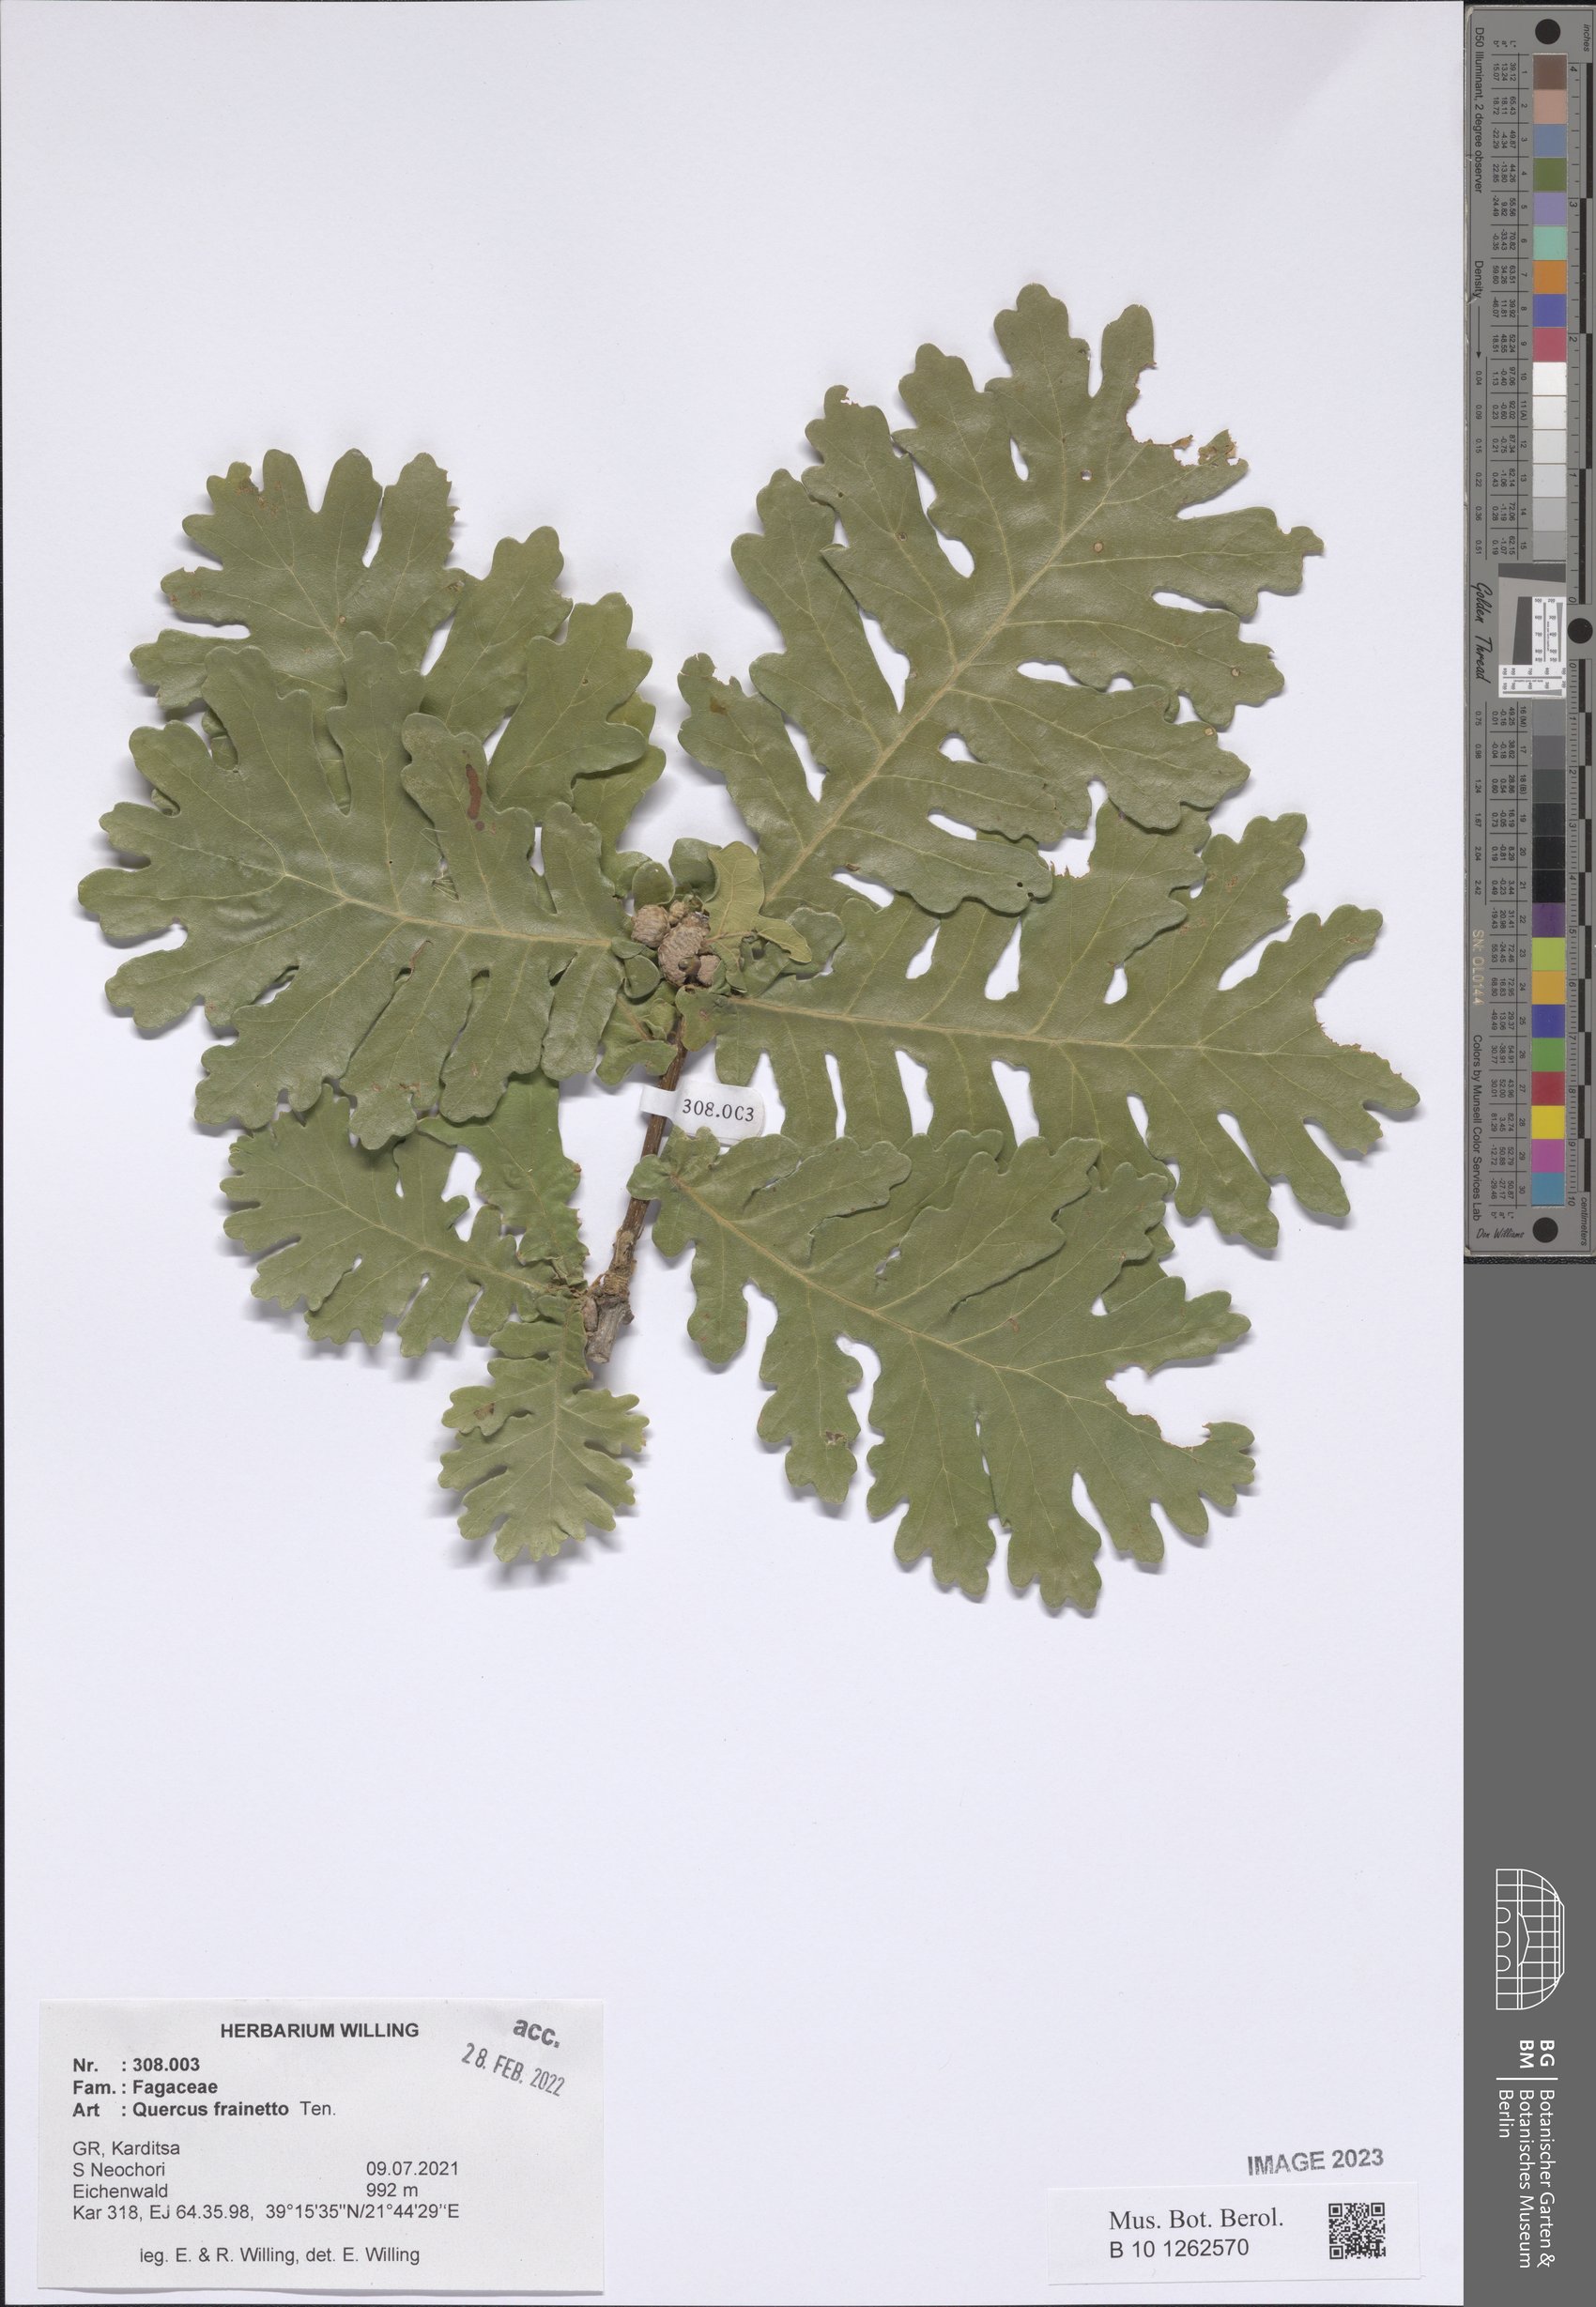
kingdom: Plantae
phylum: Tracheophyta
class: Magnoliopsida
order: Fagales
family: Fagaceae
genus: Quercus
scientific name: Quercus conferta
